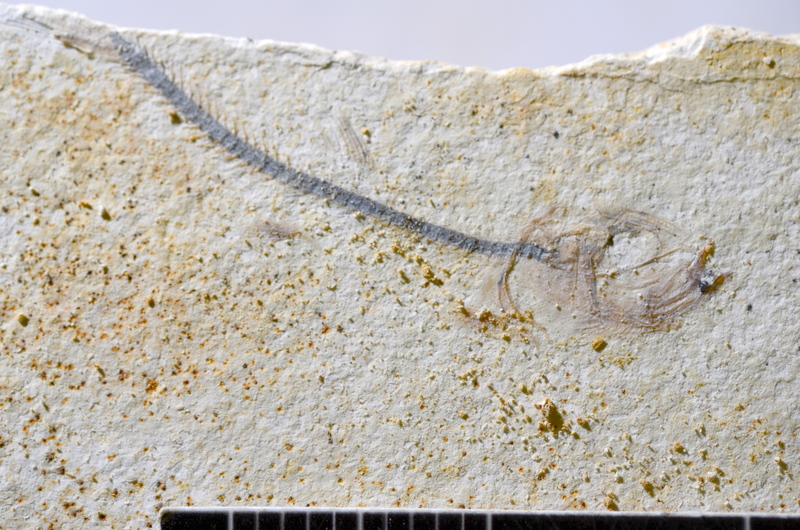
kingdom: Animalia
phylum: Chordata
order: Salmoniformes
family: Orthogonikleithridae
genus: Orthogonikleithrus
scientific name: Orthogonikleithrus hoelli
